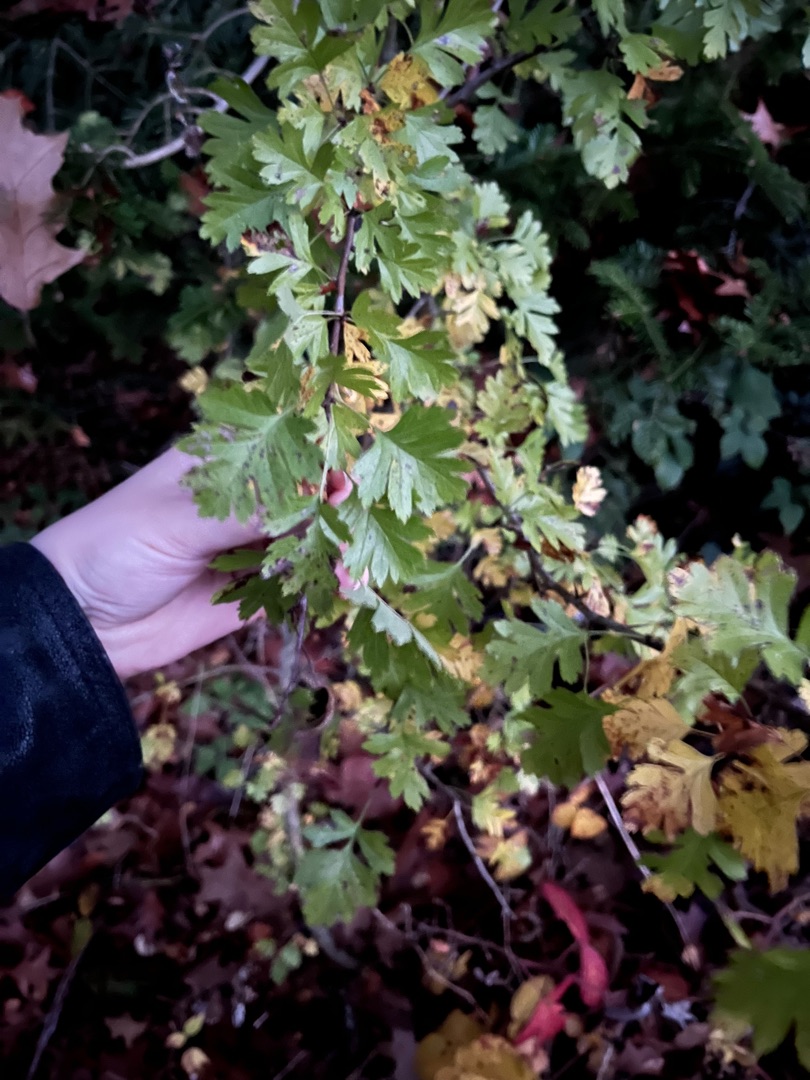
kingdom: Plantae
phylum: Tracheophyta
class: Magnoliopsida
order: Rosales
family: Rosaceae
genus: Crataegus
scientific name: Crataegus subsphaerica
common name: Engriflet hvidtjørn × koral-hvidtjørn
